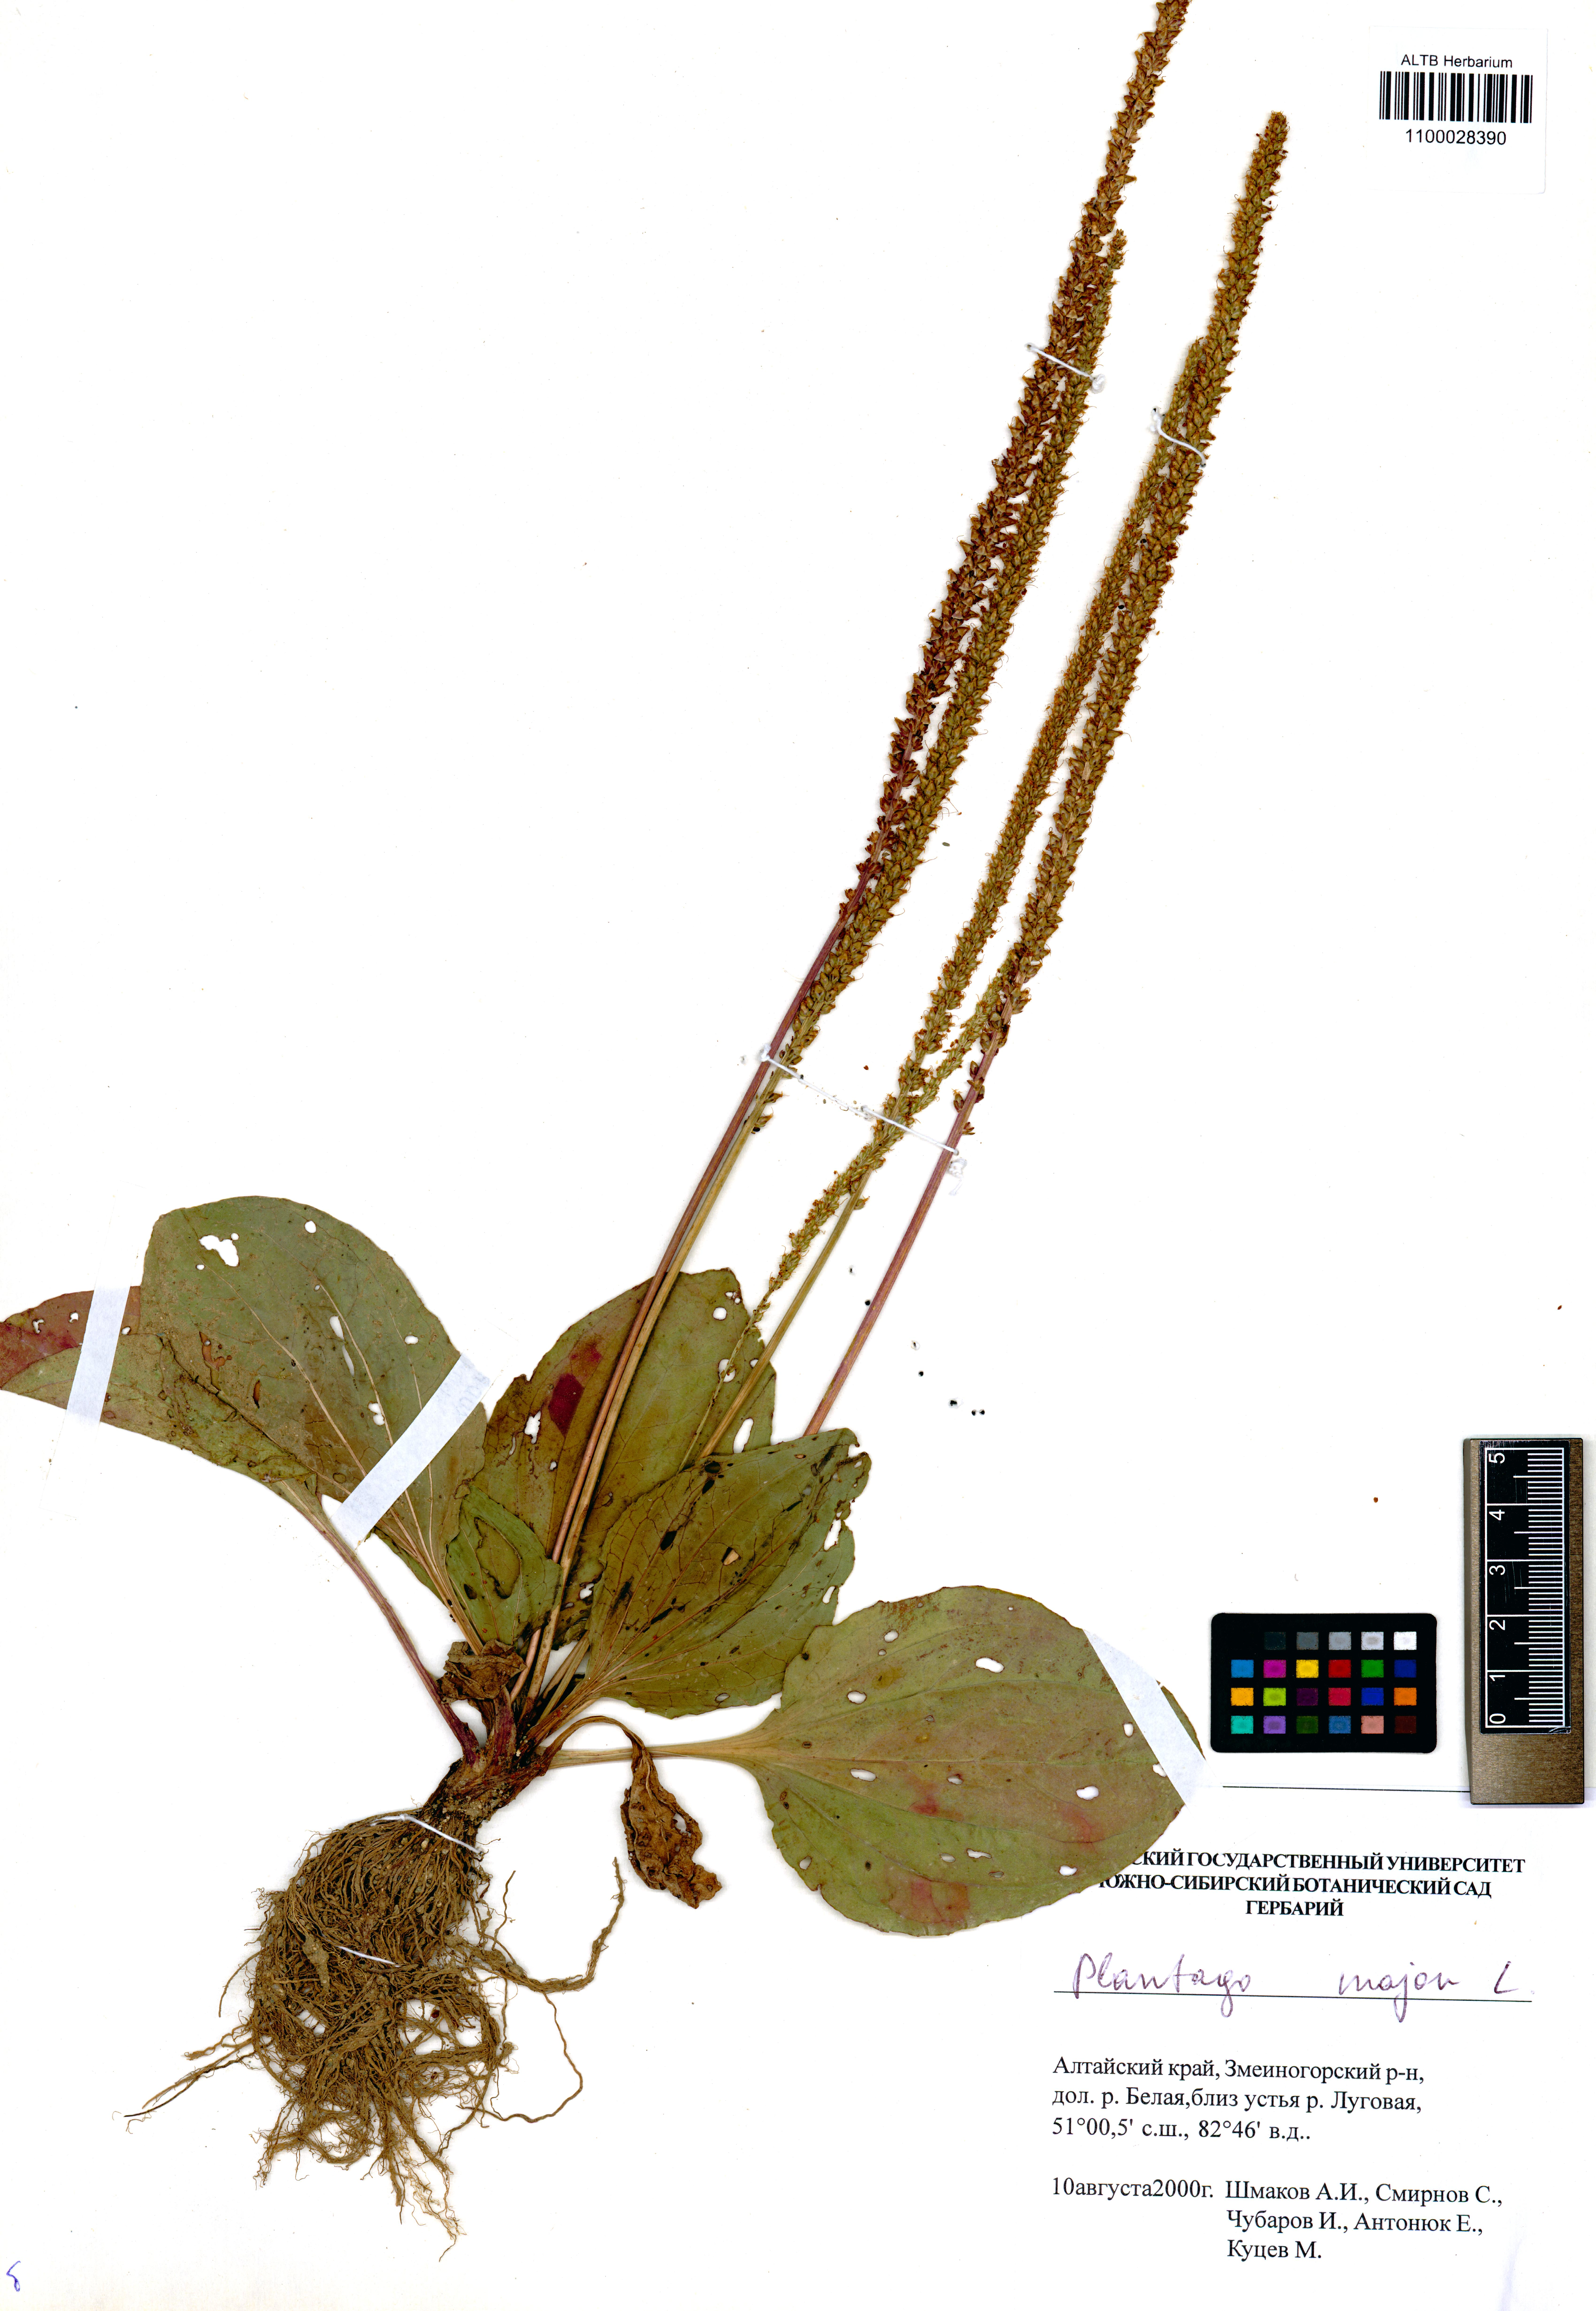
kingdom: Plantae
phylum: Tracheophyta
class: Magnoliopsida
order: Lamiales
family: Plantaginaceae
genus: Plantago
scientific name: Plantago major
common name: Common plantain
